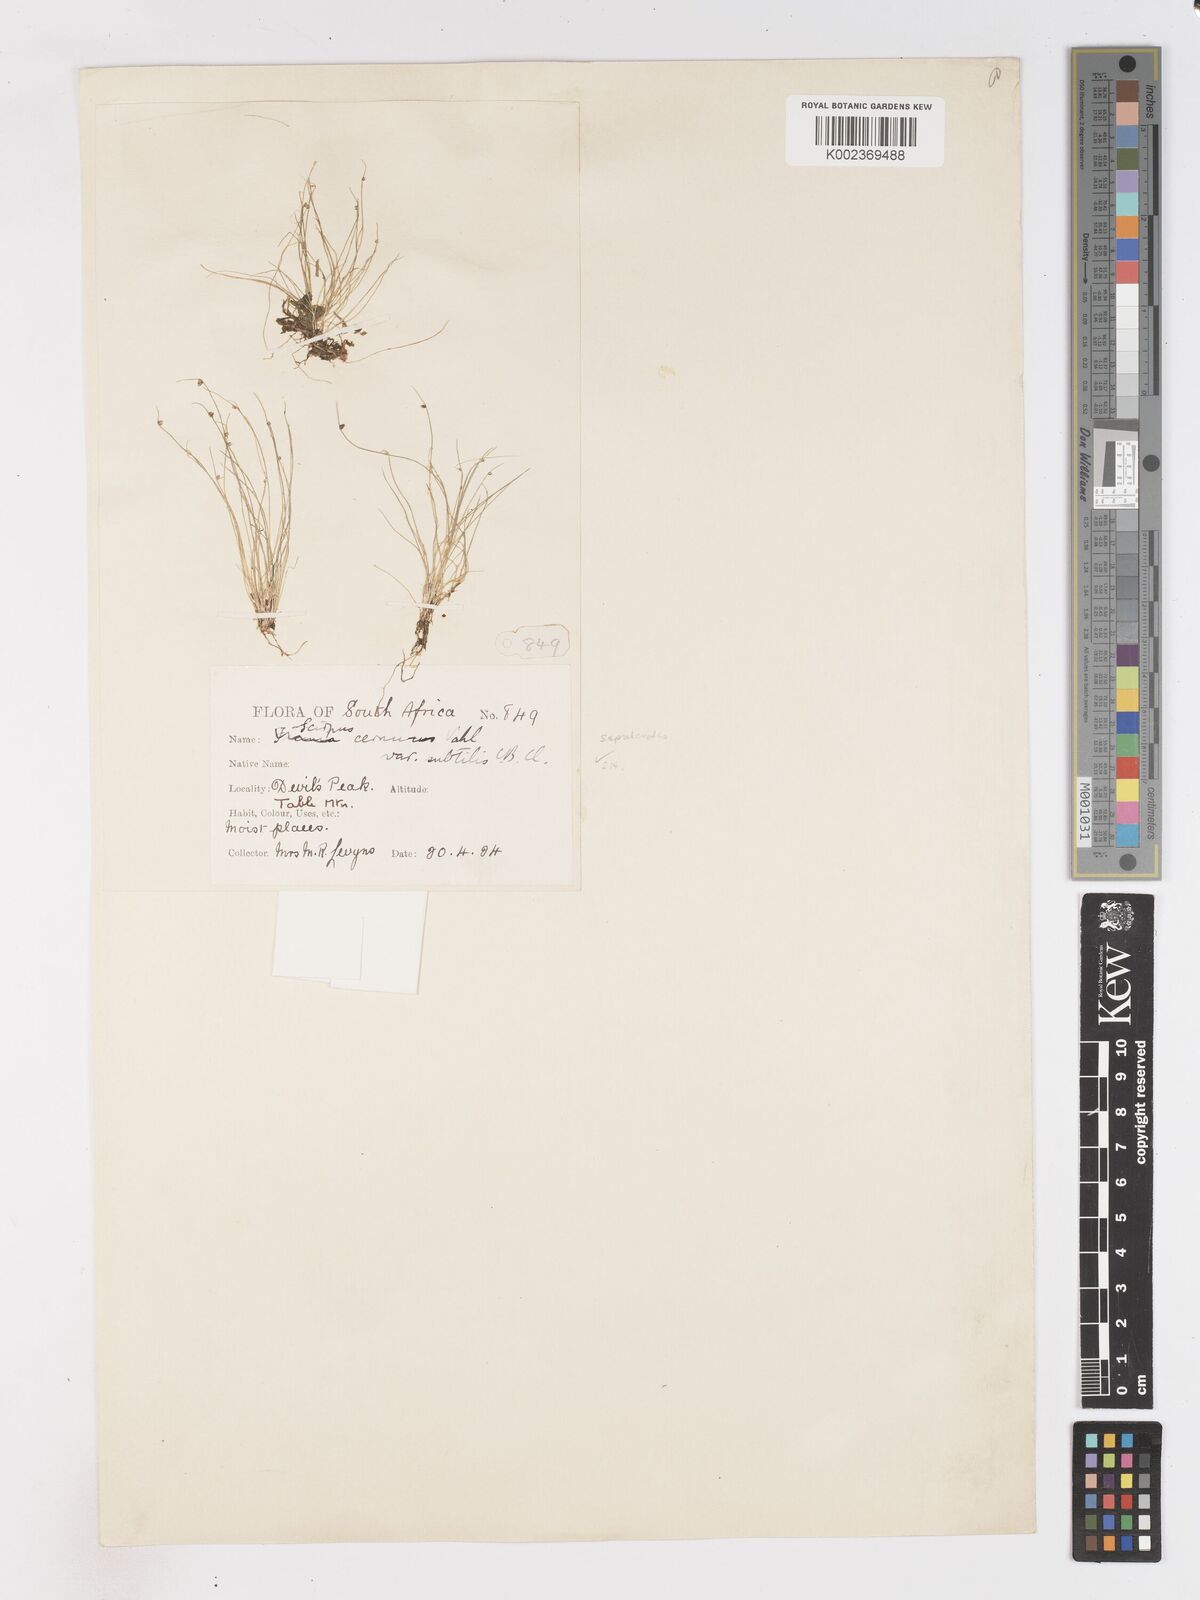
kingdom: Plantae
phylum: Tracheophyta
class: Liliopsida
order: Poales
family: Cyperaceae
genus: Isolepis
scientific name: Isolepis sepulcralis
